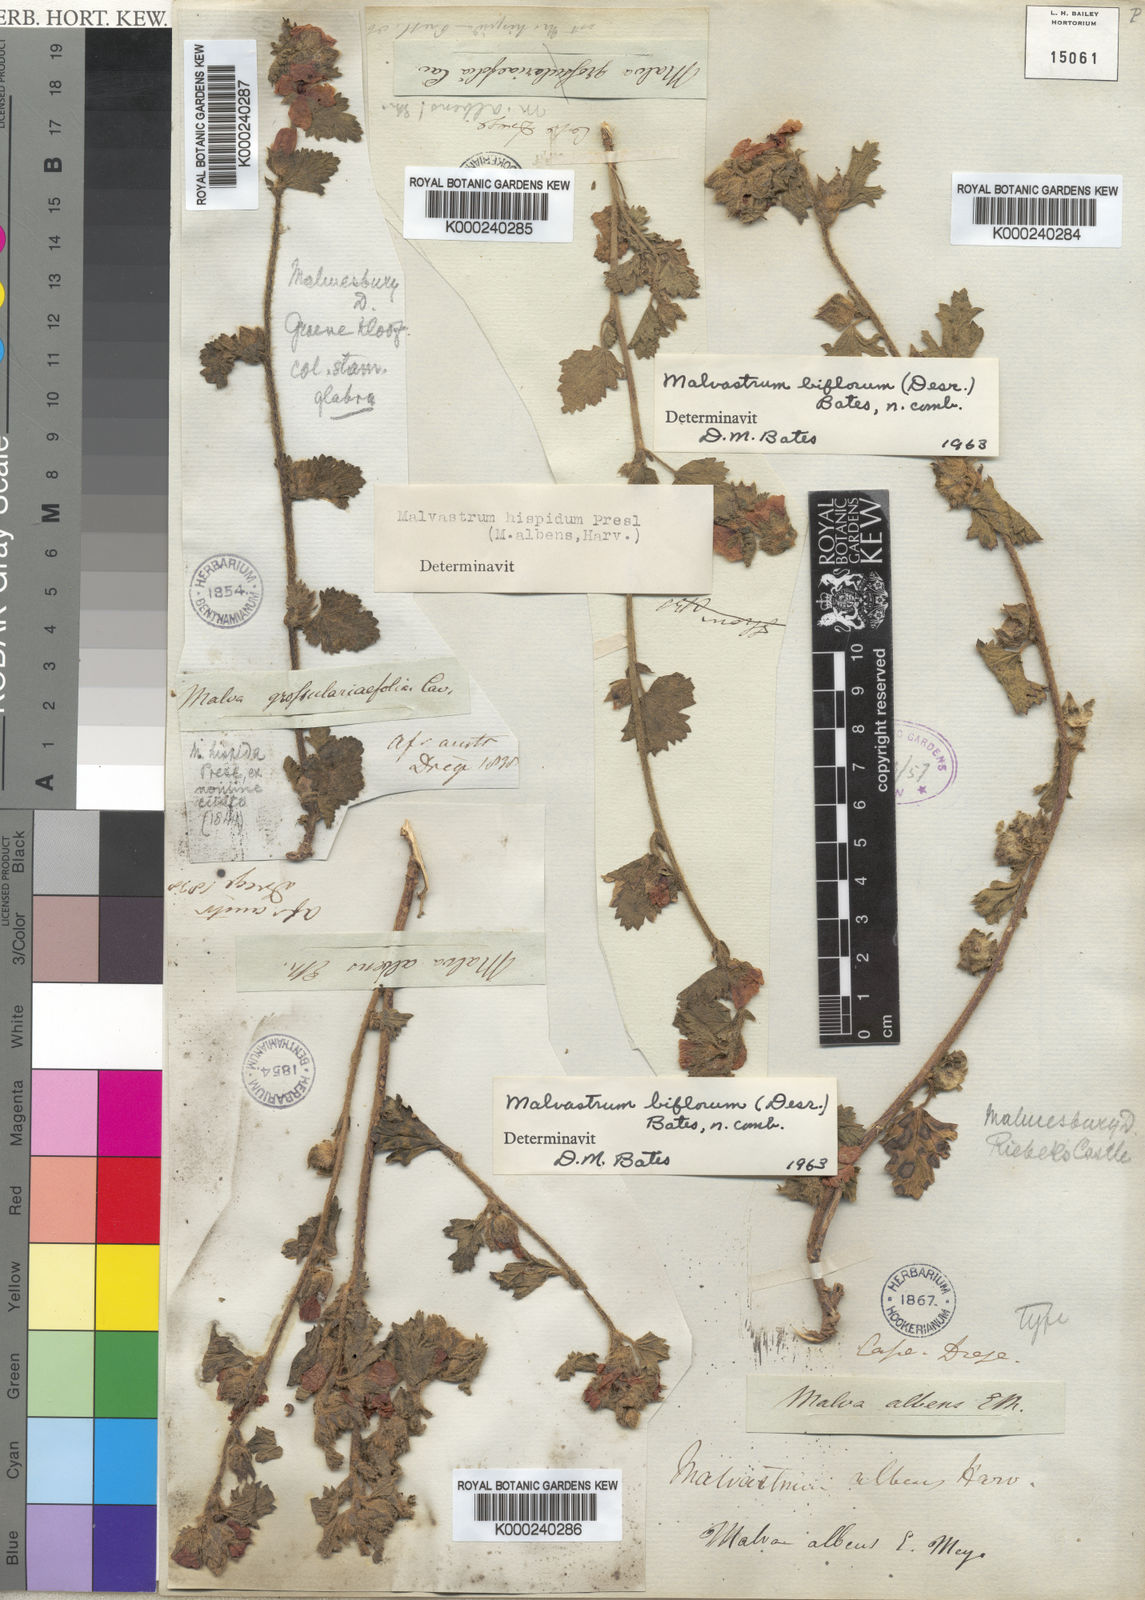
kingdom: Plantae
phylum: Tracheophyta
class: Magnoliopsida
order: Malvales
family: Malvaceae
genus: Malvastrum
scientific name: Malvastrum
